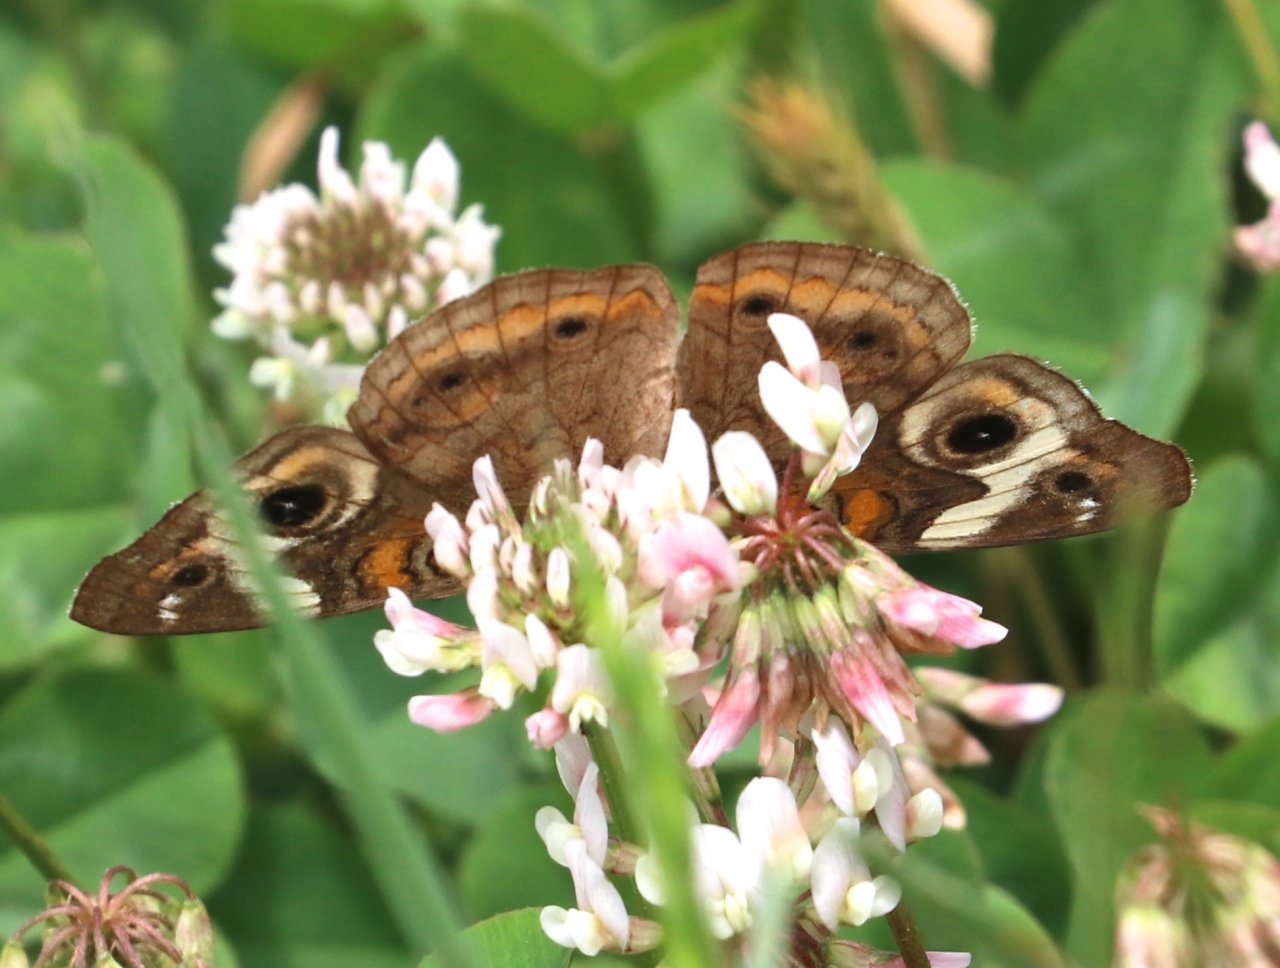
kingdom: Animalia
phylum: Arthropoda
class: Insecta
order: Lepidoptera
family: Nymphalidae
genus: Junonia
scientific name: Junonia coenia
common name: Common Buckeye
